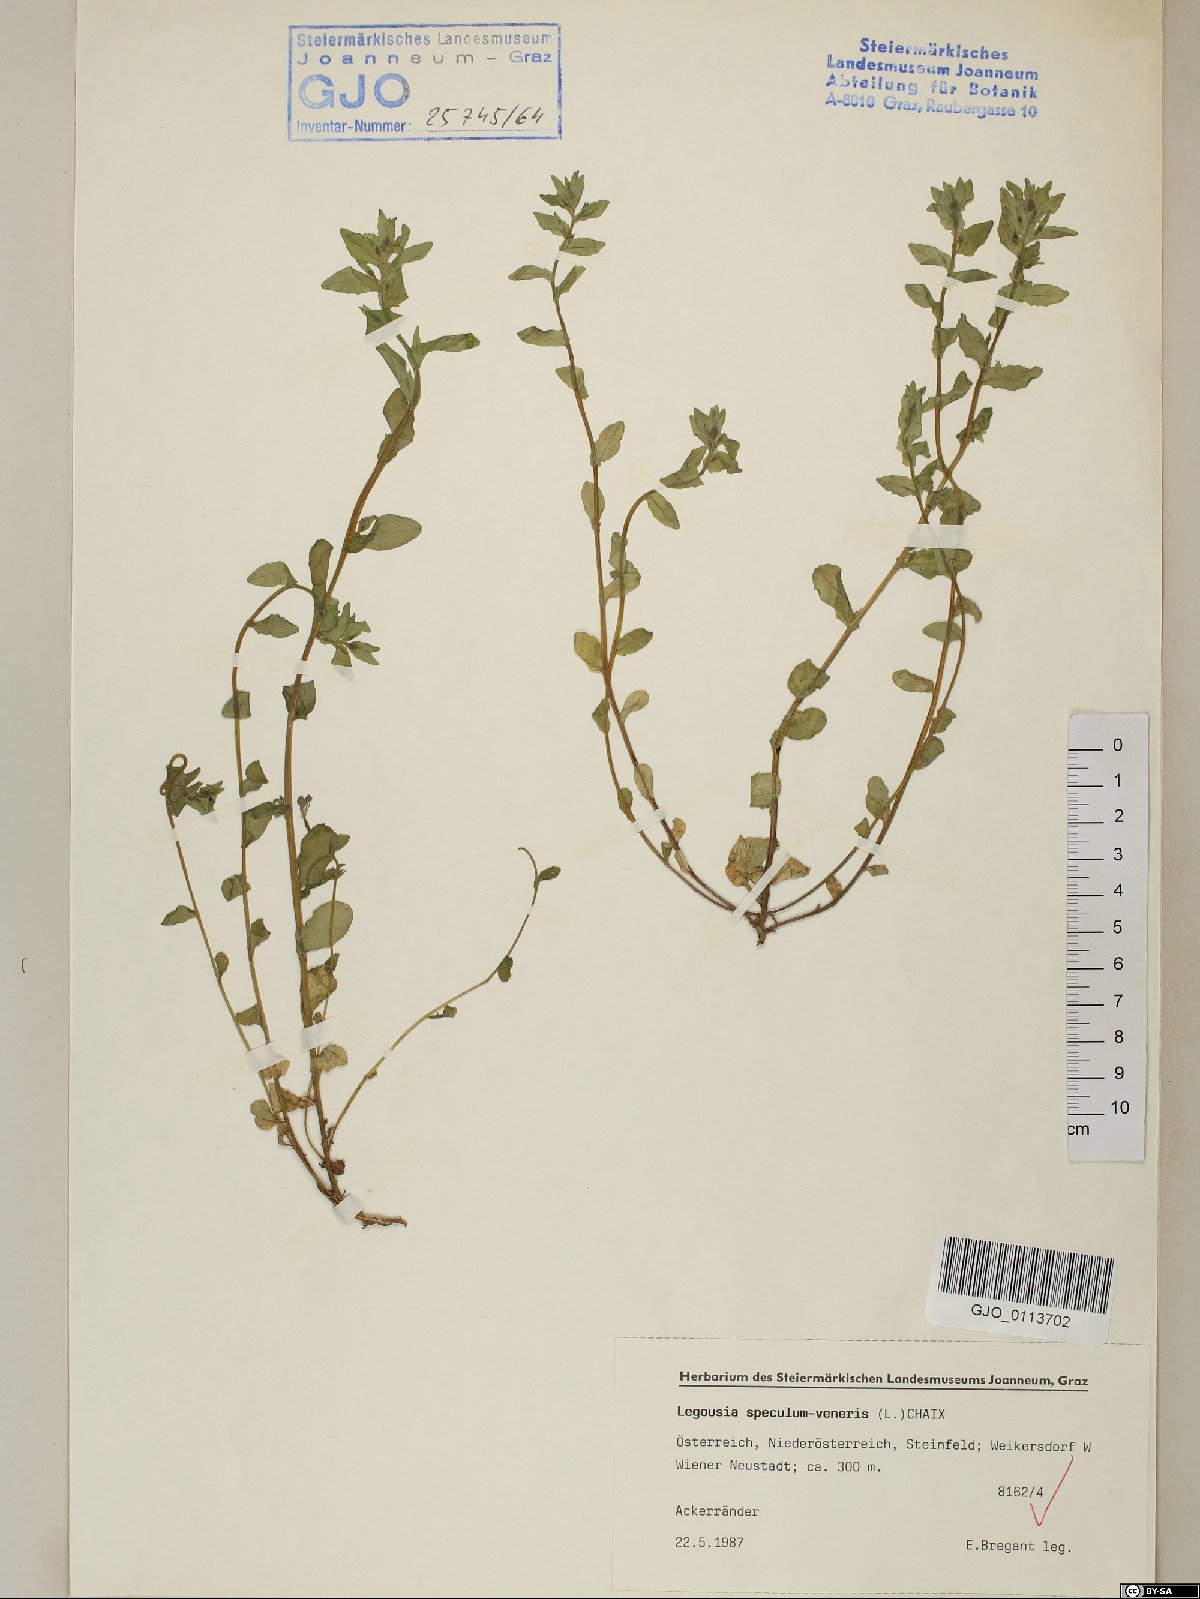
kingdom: Plantae
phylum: Tracheophyta
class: Magnoliopsida
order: Asterales
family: Campanulaceae
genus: Legousia
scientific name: Legousia speculum-veneris
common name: Large venus's-looking-glass
